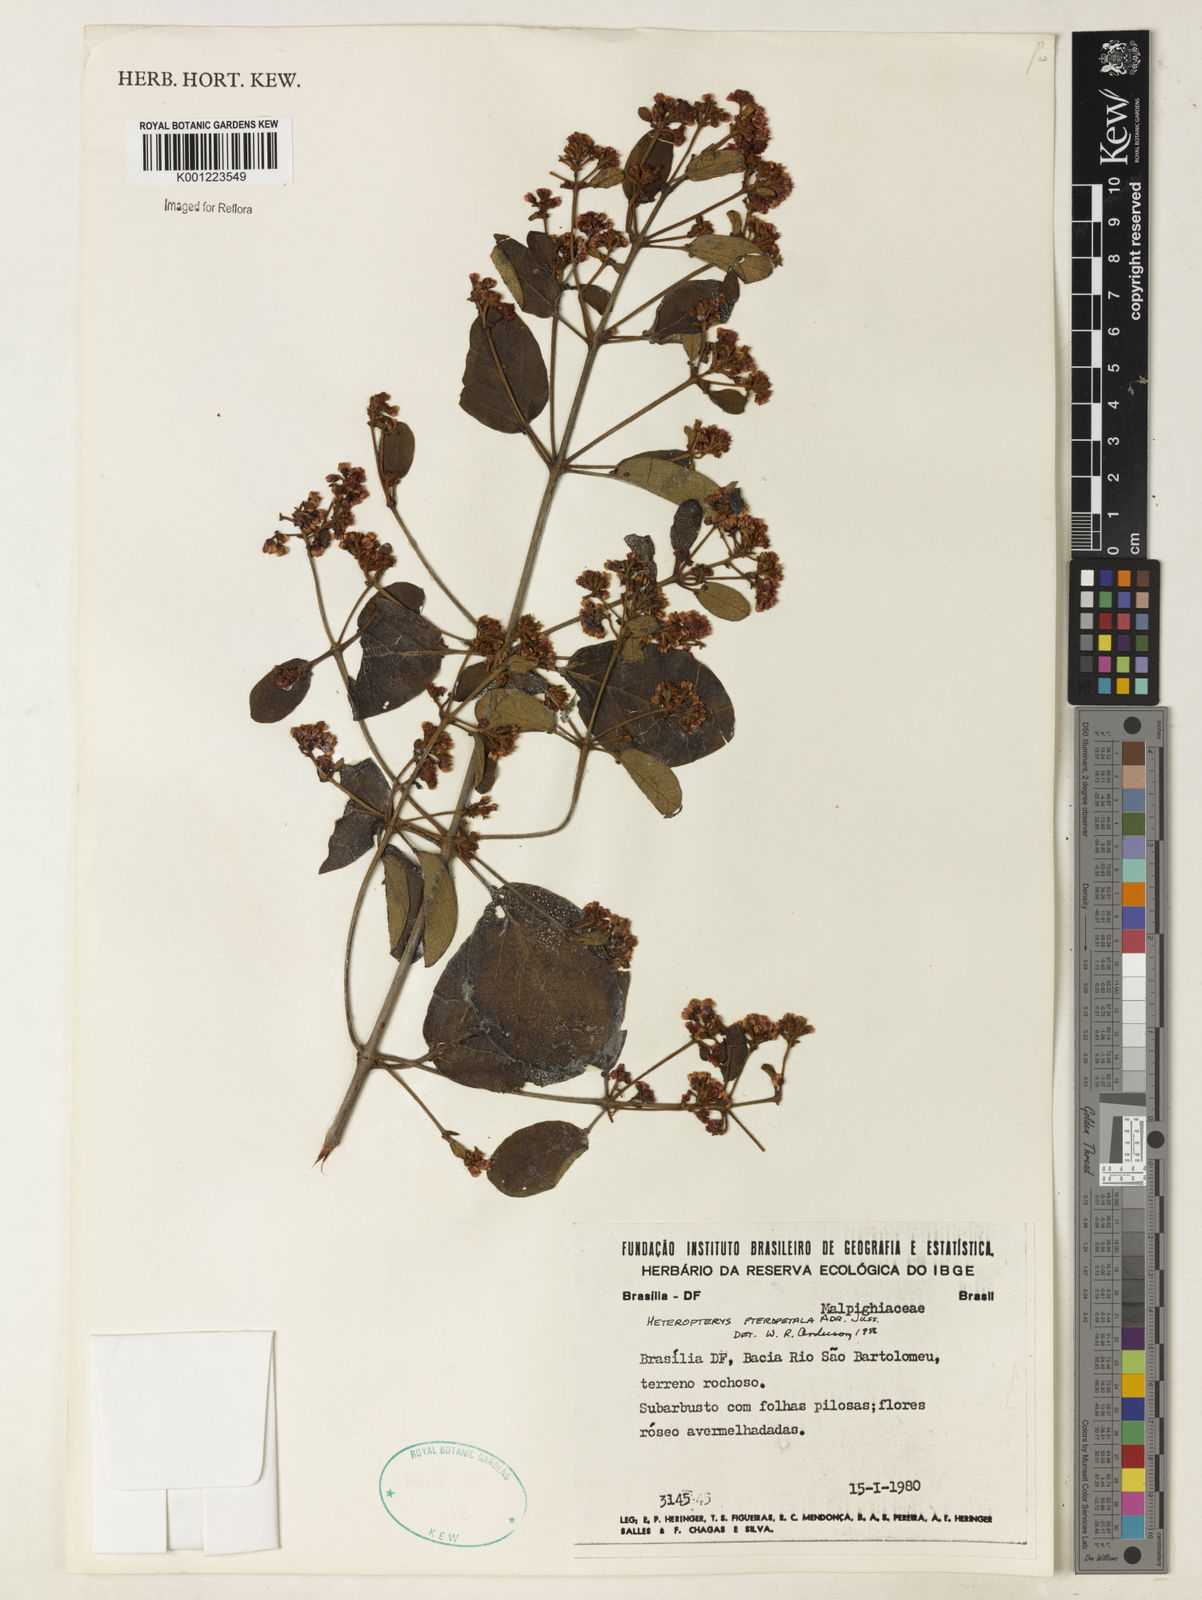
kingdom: Plantae
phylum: Tracheophyta
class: Magnoliopsida
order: Malpighiales
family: Malpighiaceae
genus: Heteropterys
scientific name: Heteropterys pteropetala
